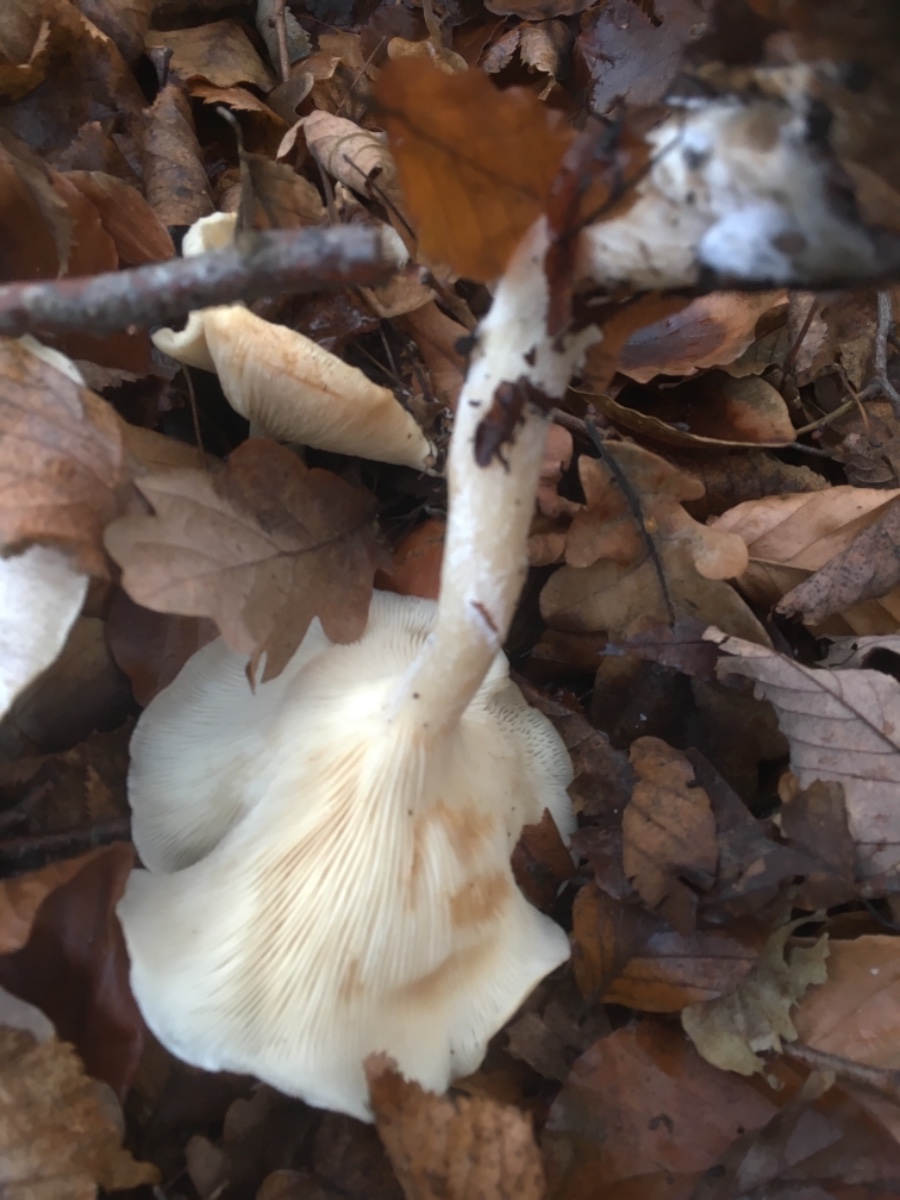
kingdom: Fungi
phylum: Basidiomycota
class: Agaricomycetes
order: Agaricales
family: Tricholomataceae
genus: Clitocybe
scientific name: Clitocybe
